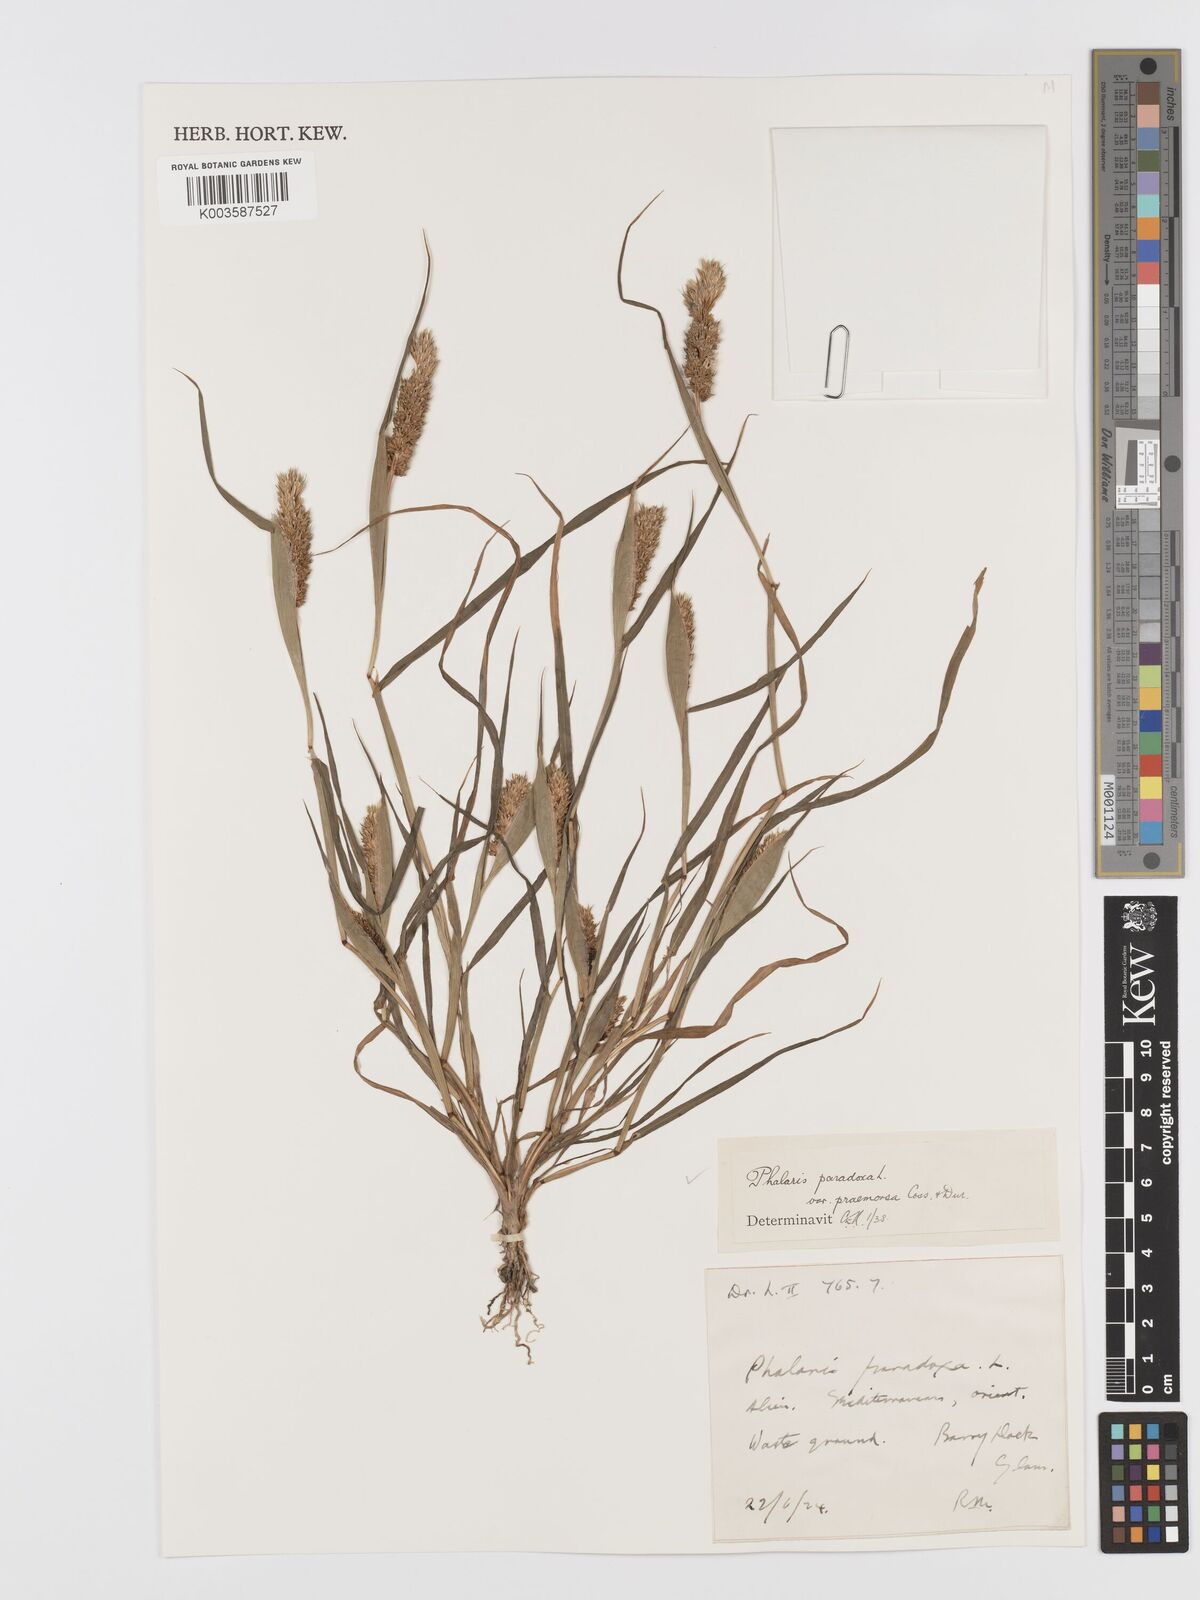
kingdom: Plantae
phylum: Tracheophyta
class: Liliopsida
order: Poales
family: Poaceae
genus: Phalaris
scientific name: Phalaris paradoxa
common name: Awned canary-grass
